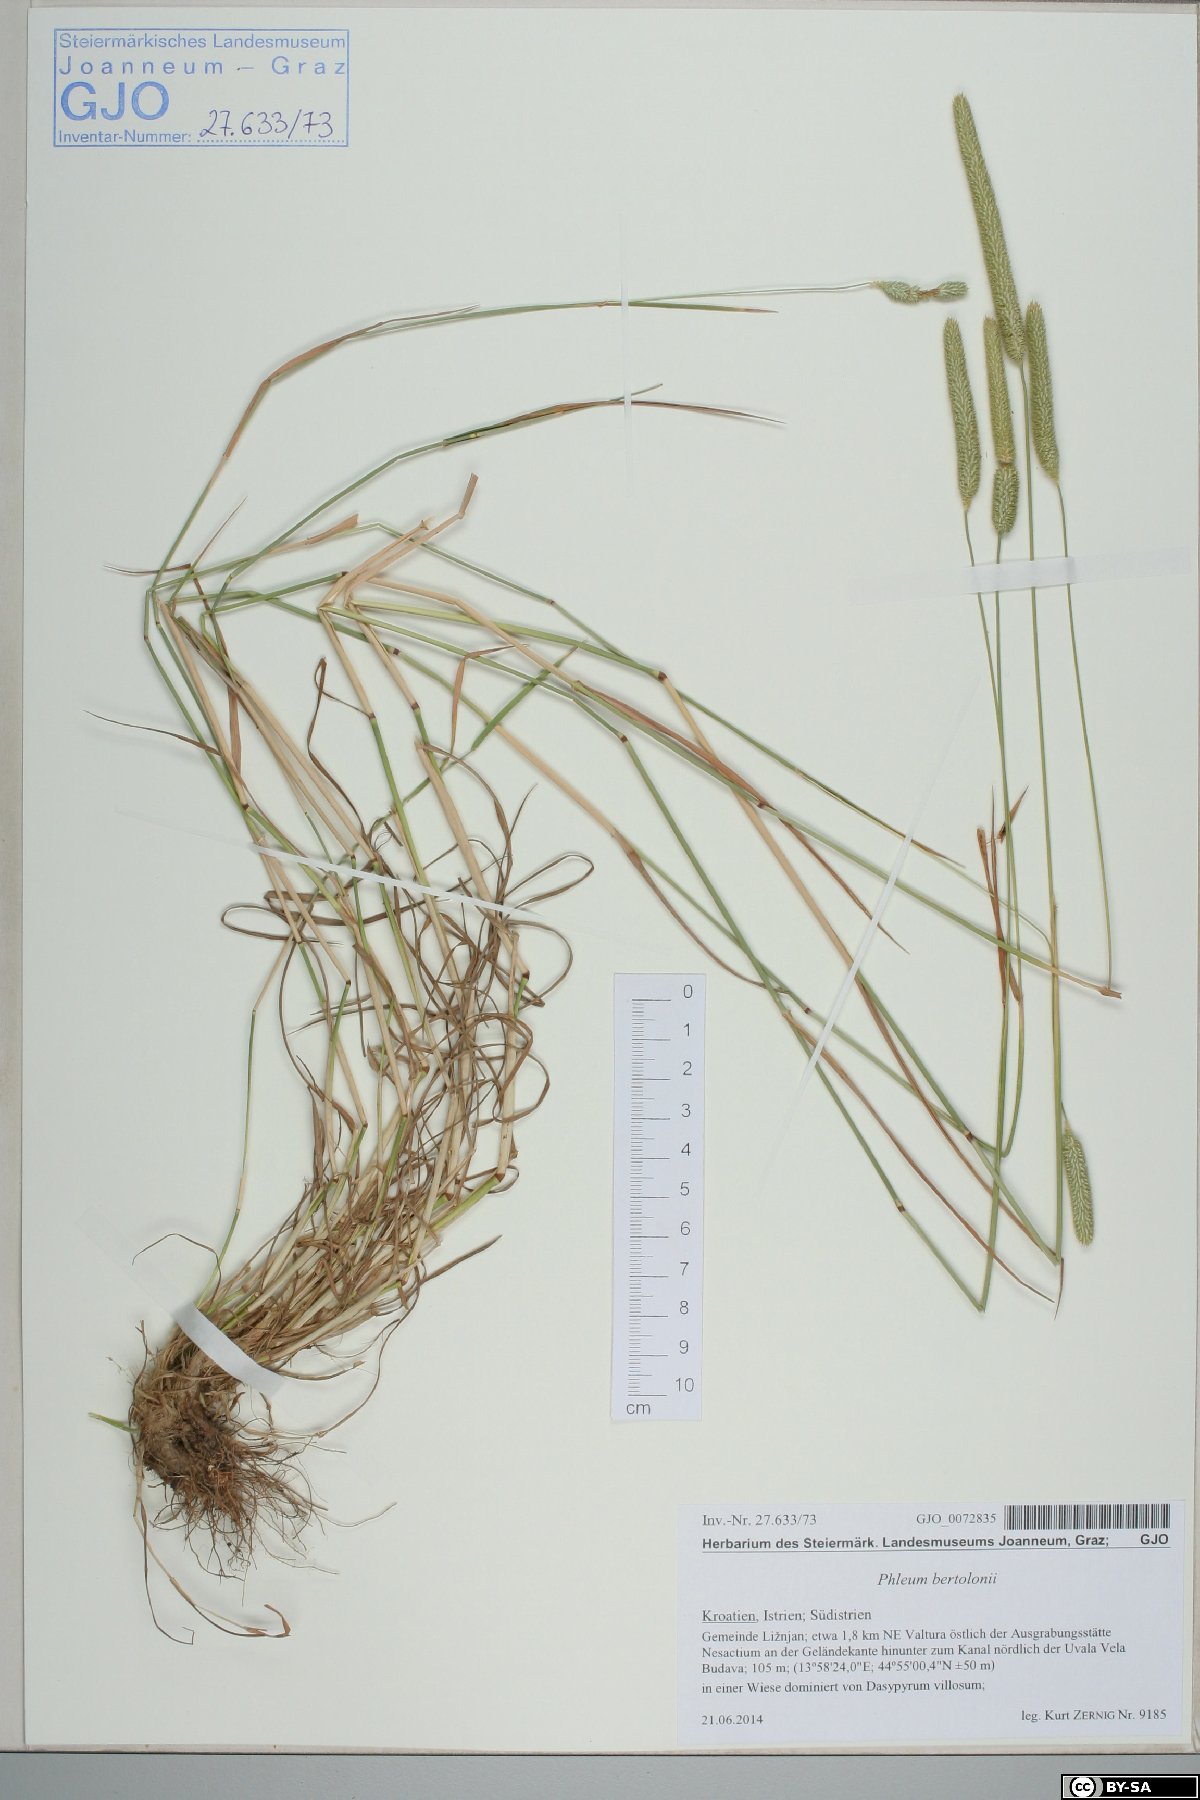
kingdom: Plantae
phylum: Tracheophyta
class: Liliopsida
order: Poales
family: Poaceae
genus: Phleum
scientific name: Phleum bertolonii
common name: Smaller cat's-tail
